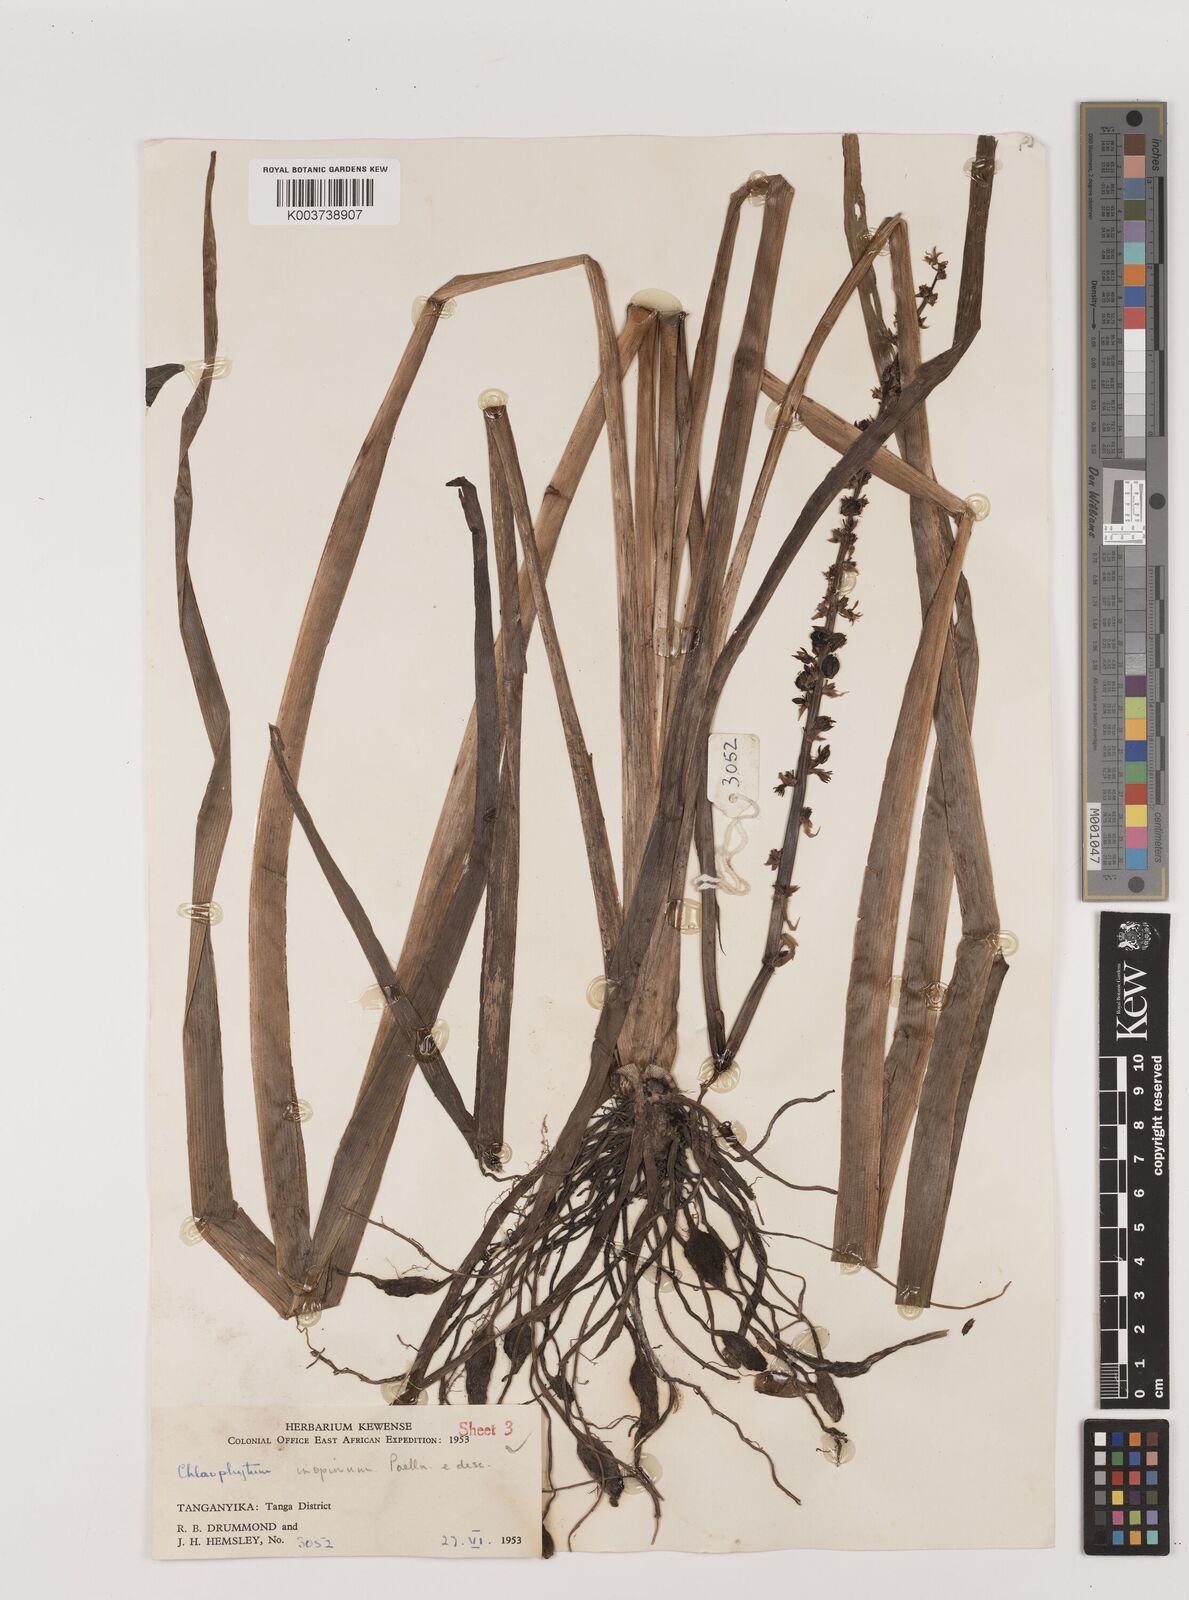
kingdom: Plantae
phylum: Tracheophyta
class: Liliopsida
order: Asparagales
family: Asparagaceae
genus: Chlorophytum
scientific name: Chlorophytum comosum
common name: Spider plant
